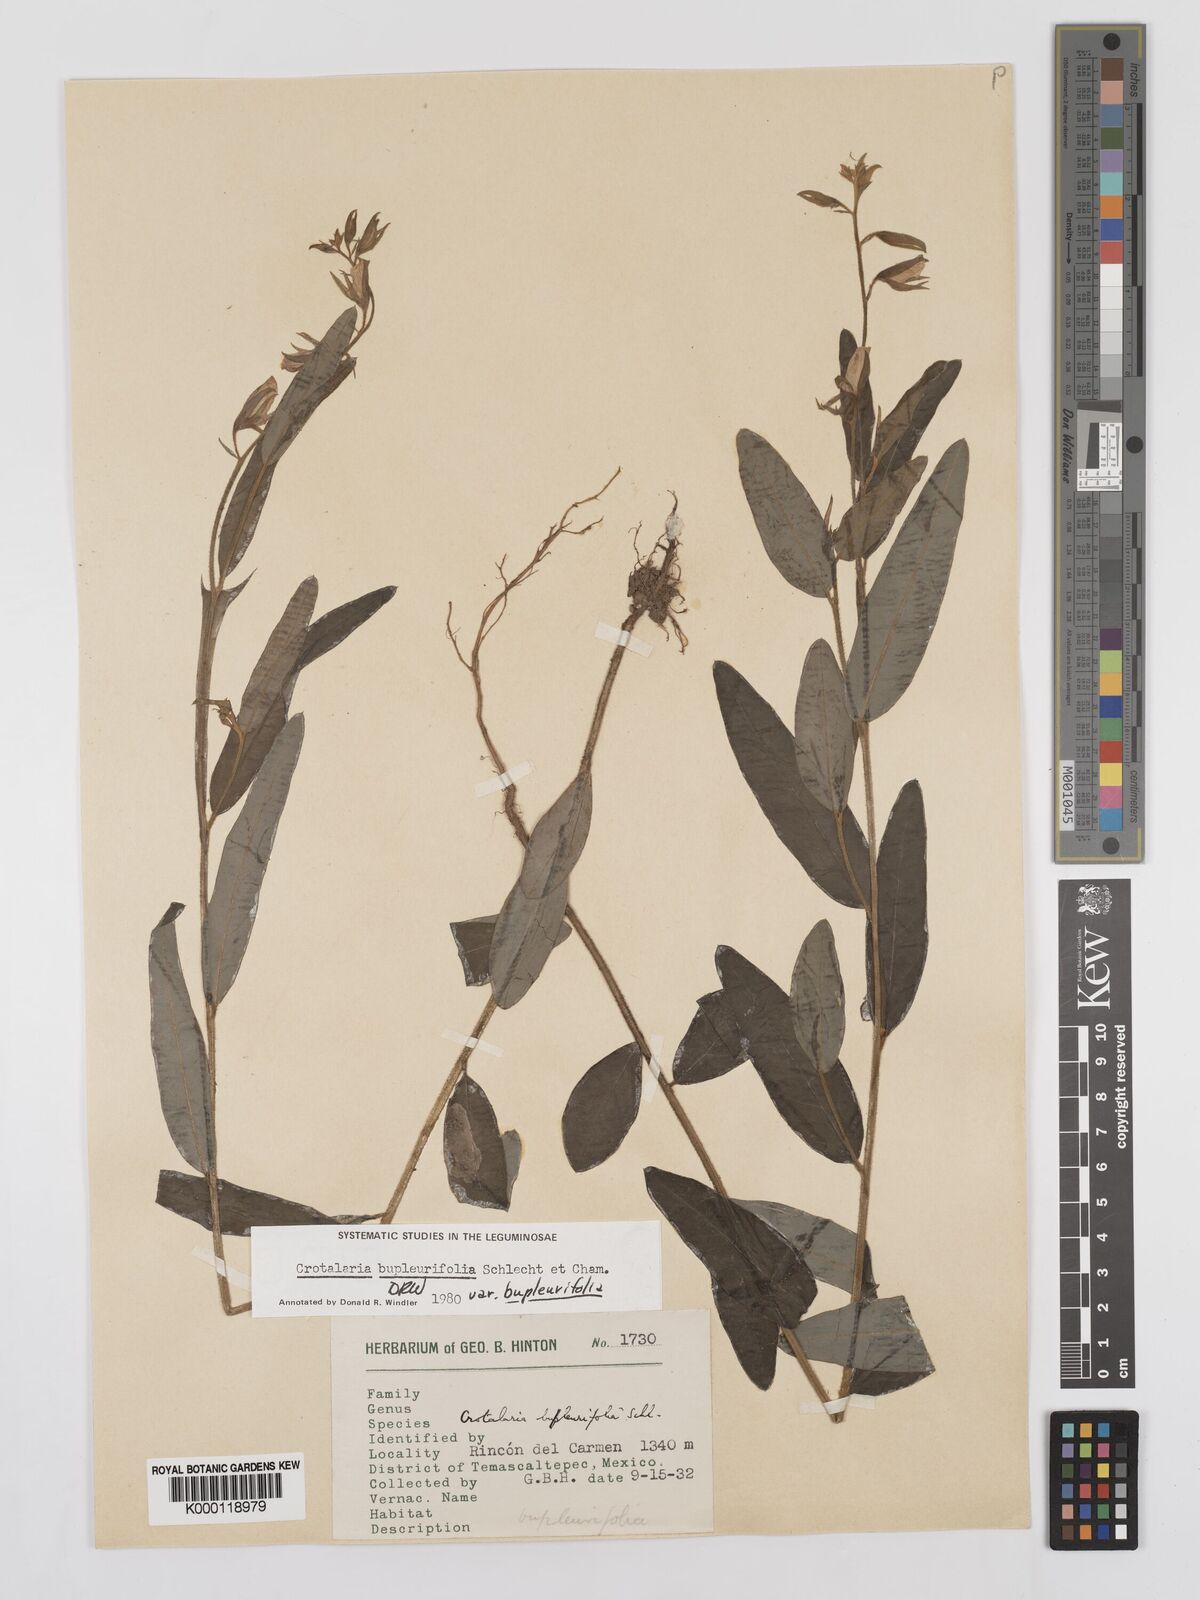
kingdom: Plantae
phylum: Tracheophyta
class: Magnoliopsida
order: Fabales
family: Fabaceae
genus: Crotalaria
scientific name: Crotalaria bupleurifolia
